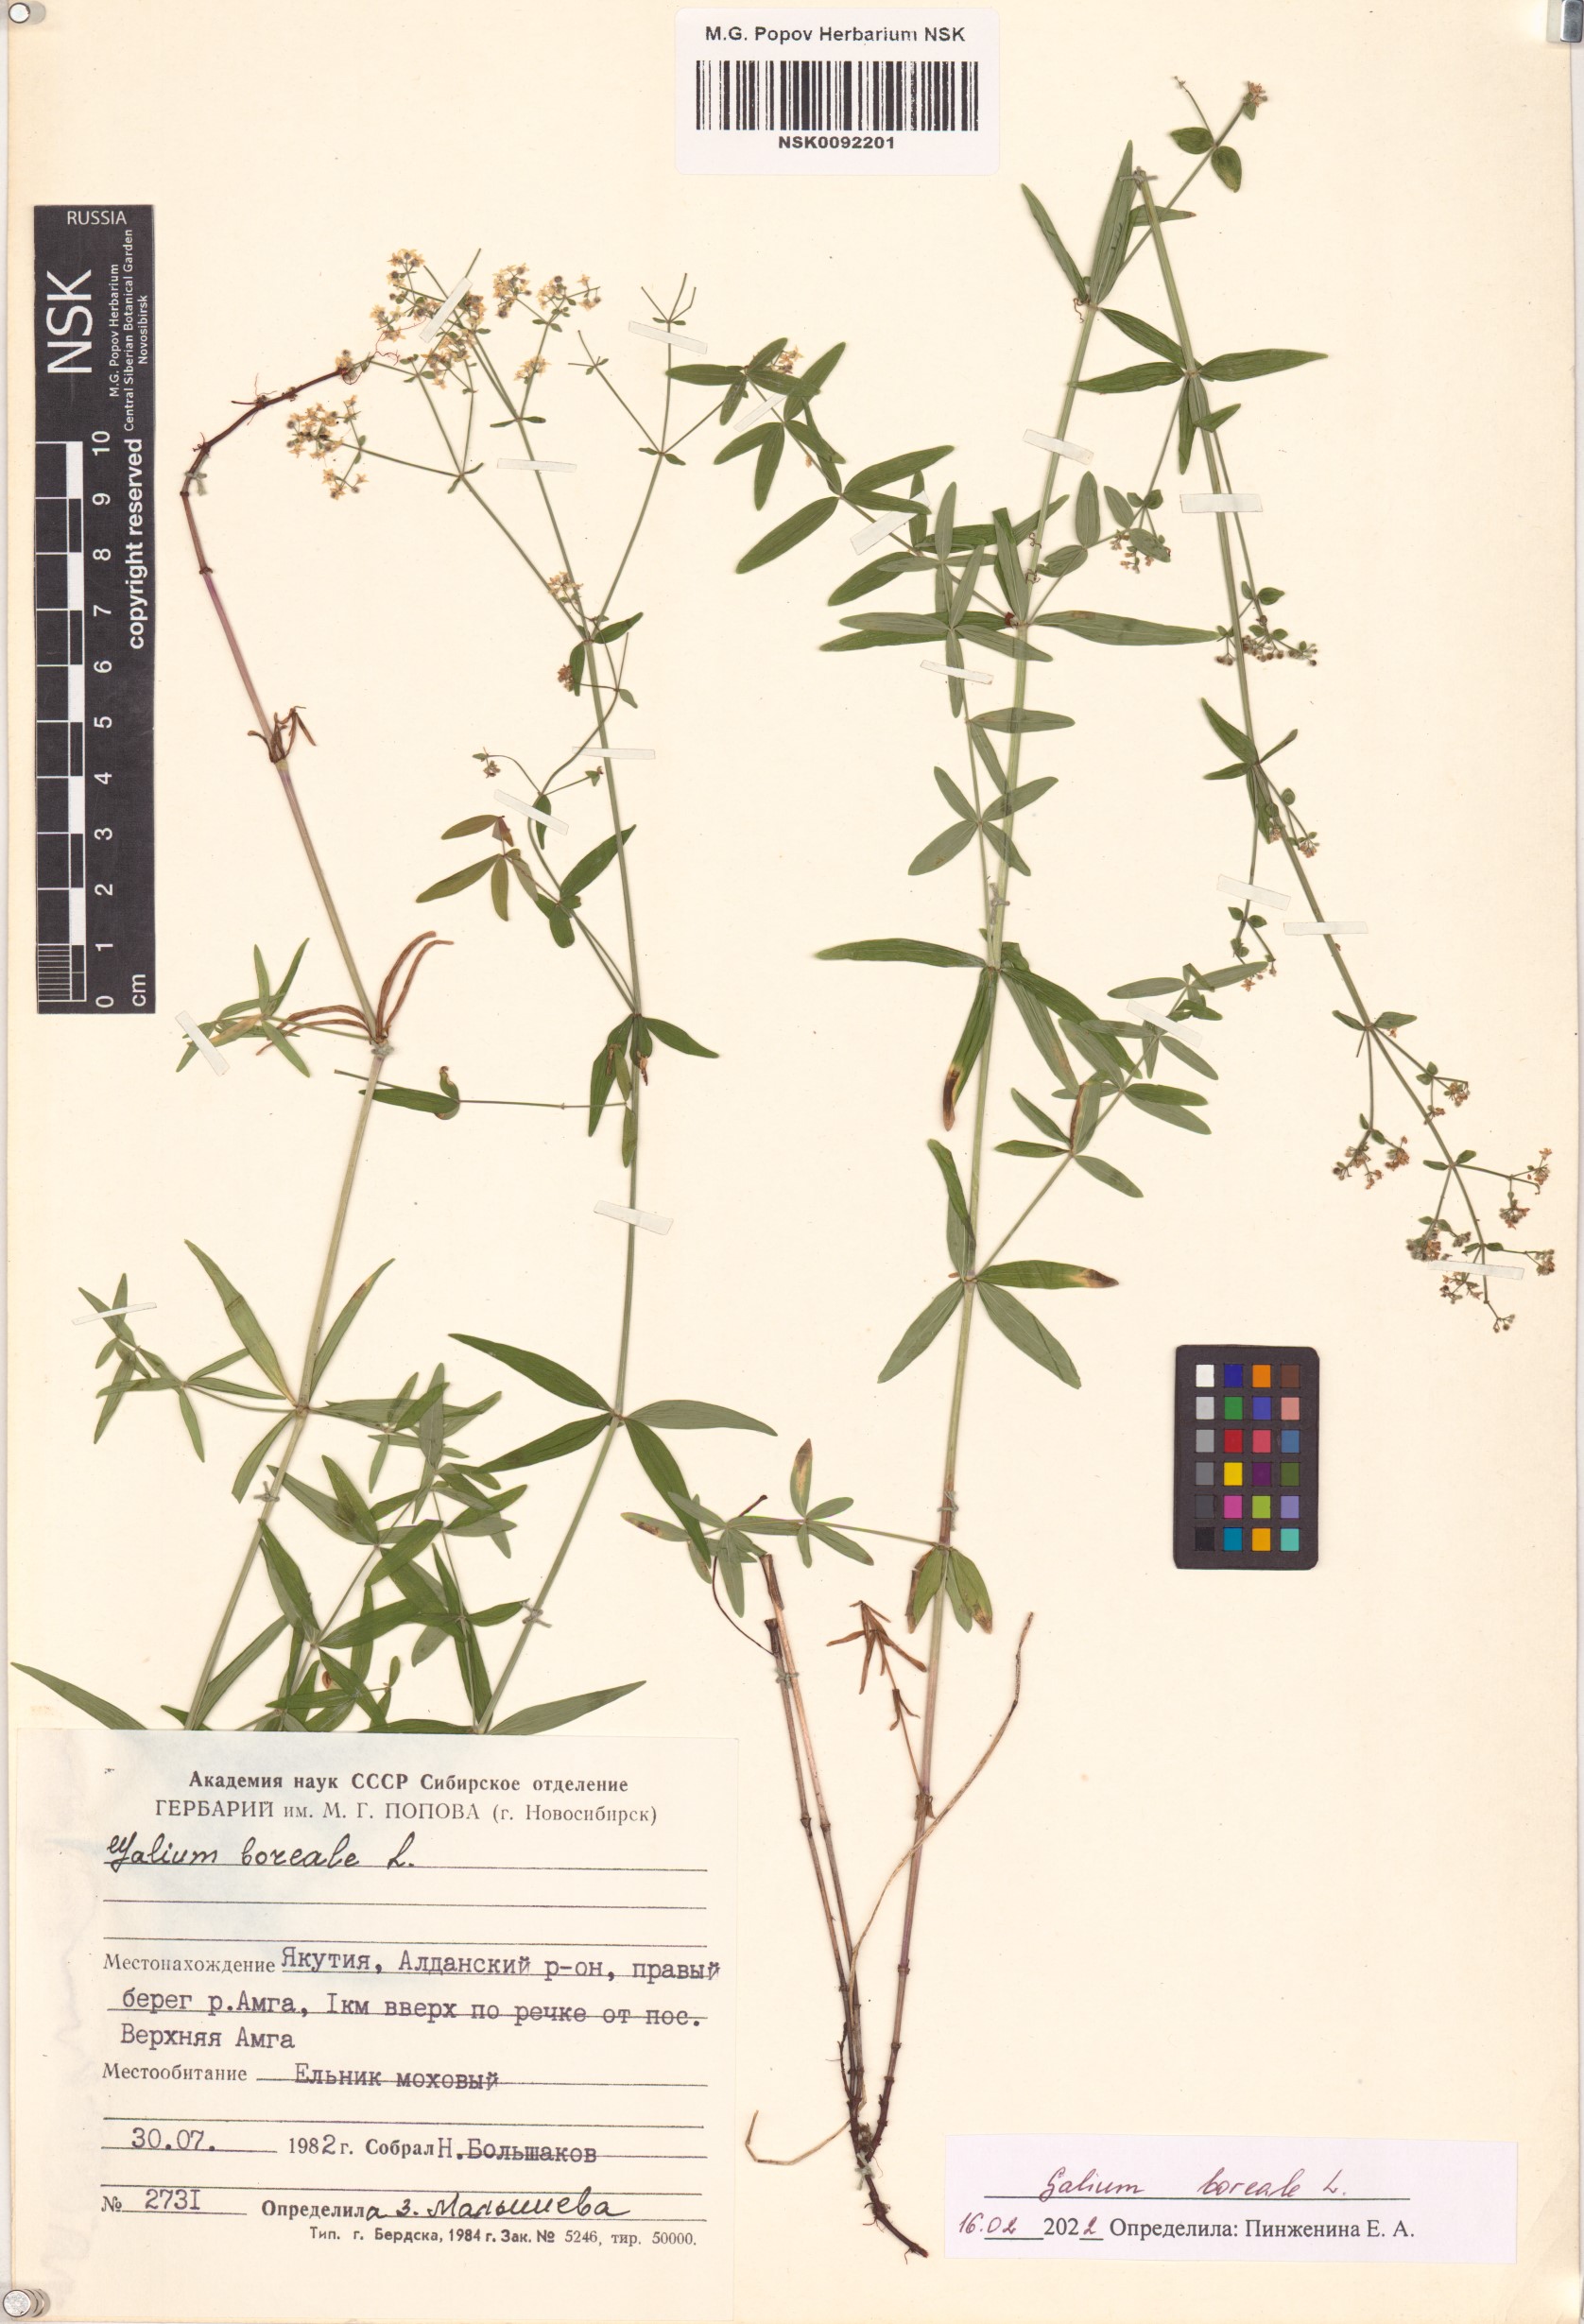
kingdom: Plantae
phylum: Tracheophyta
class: Magnoliopsida
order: Gentianales
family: Rubiaceae
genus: Galium
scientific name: Galium boreale
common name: Northern bedstraw
